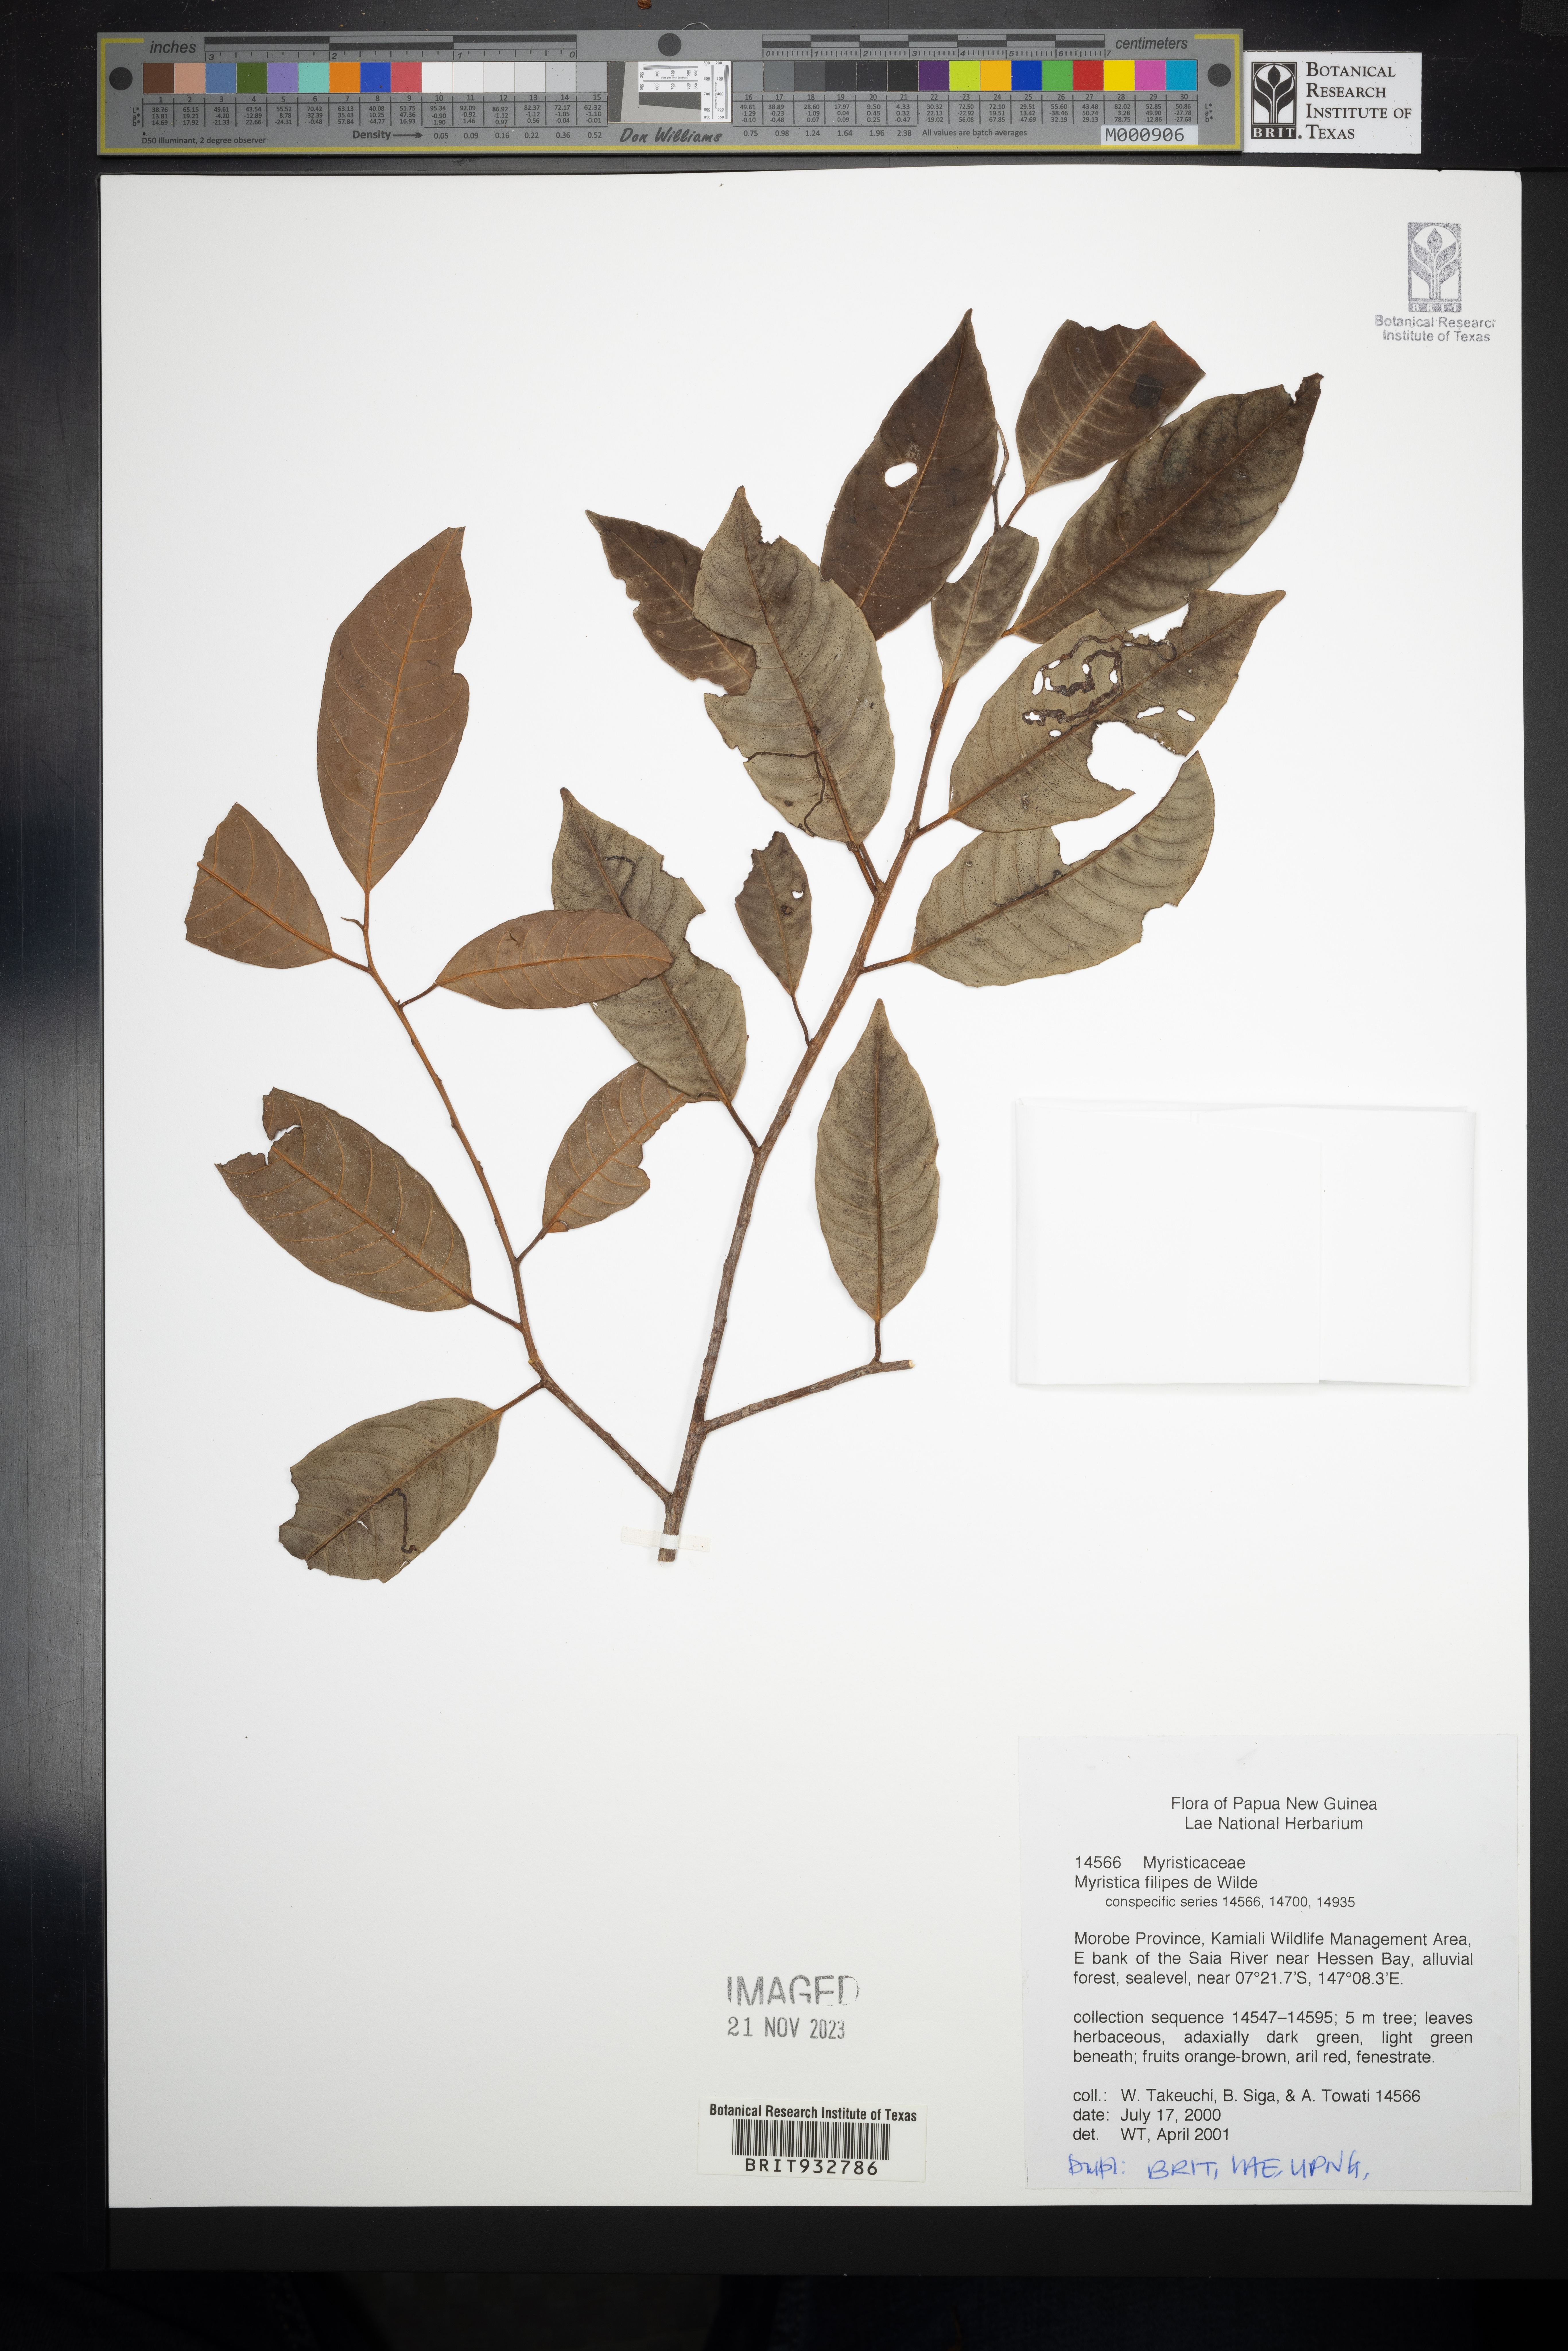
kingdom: Plantae
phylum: Tracheophyta
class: Magnoliopsida
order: Magnoliales
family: Myristicaceae
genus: Myristica
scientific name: Myristica
